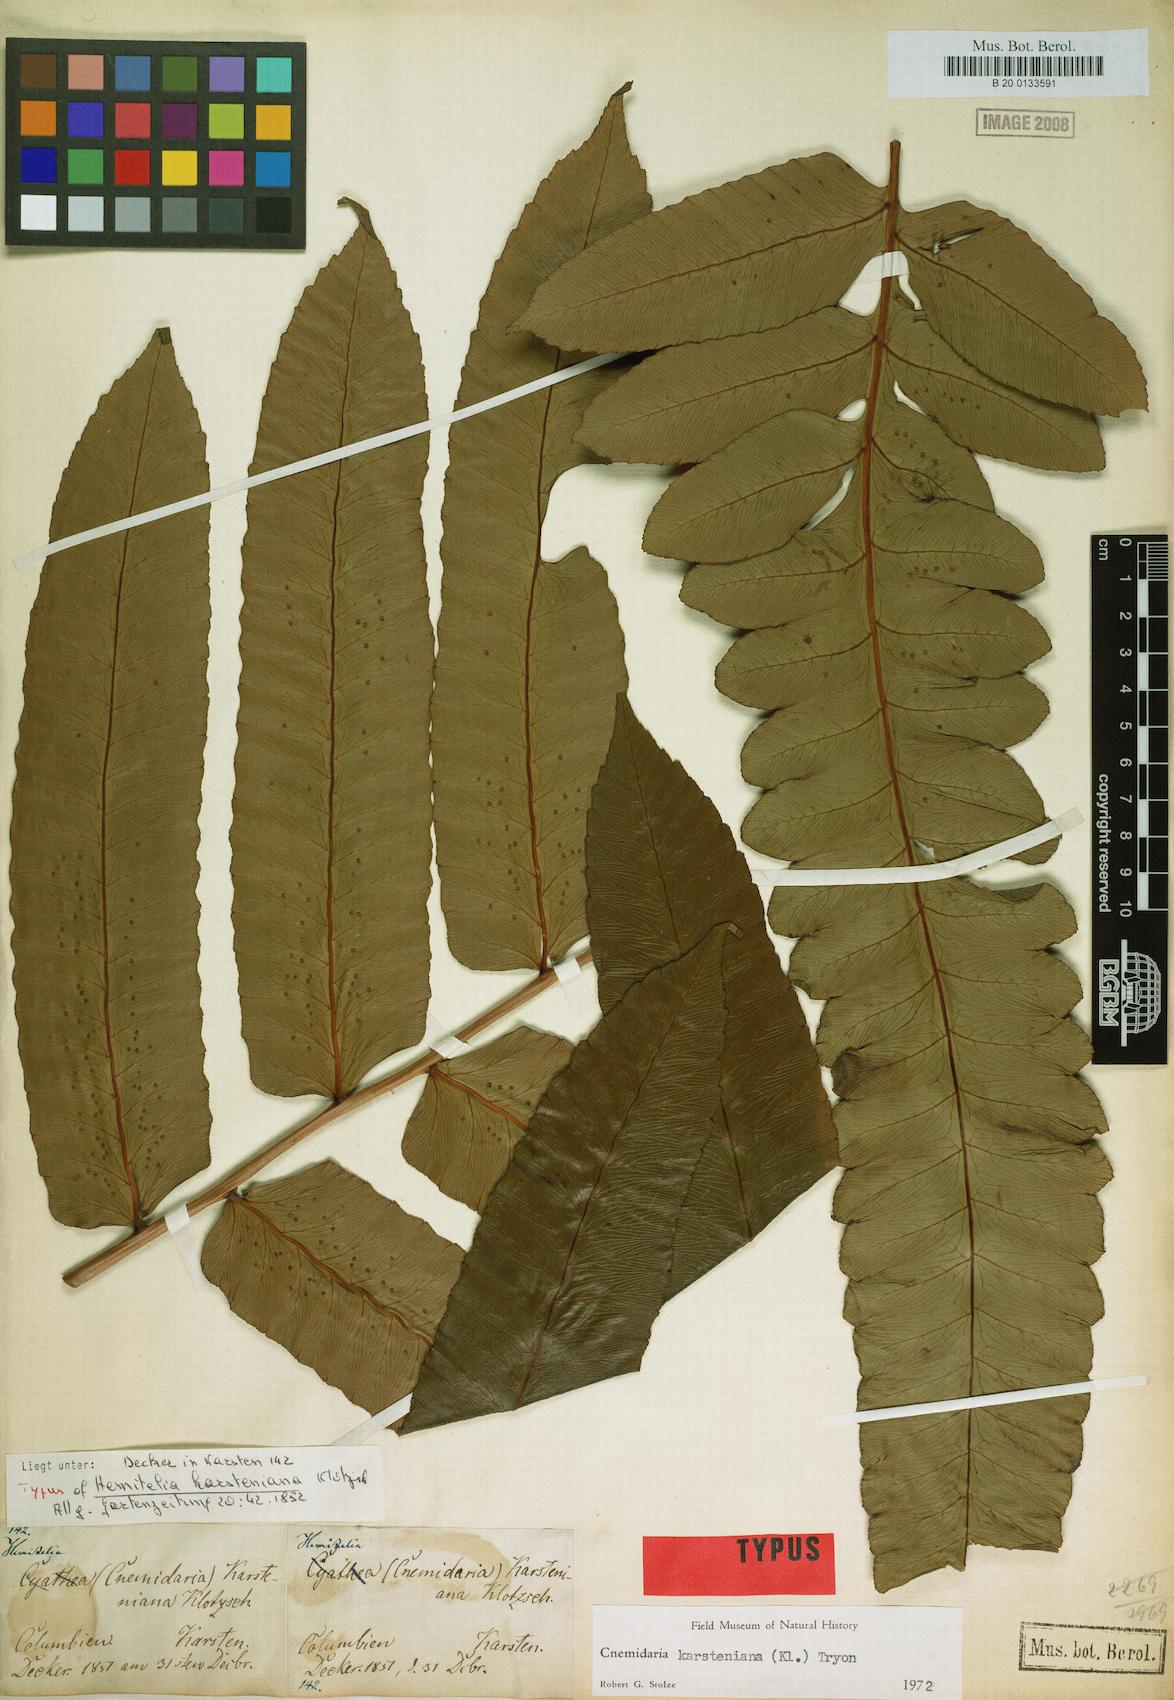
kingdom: Plantae
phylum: Tracheophyta
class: Polypodiopsida
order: Cyatheales
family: Cyatheaceae
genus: Cyathea
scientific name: Cyathea karsteniana
